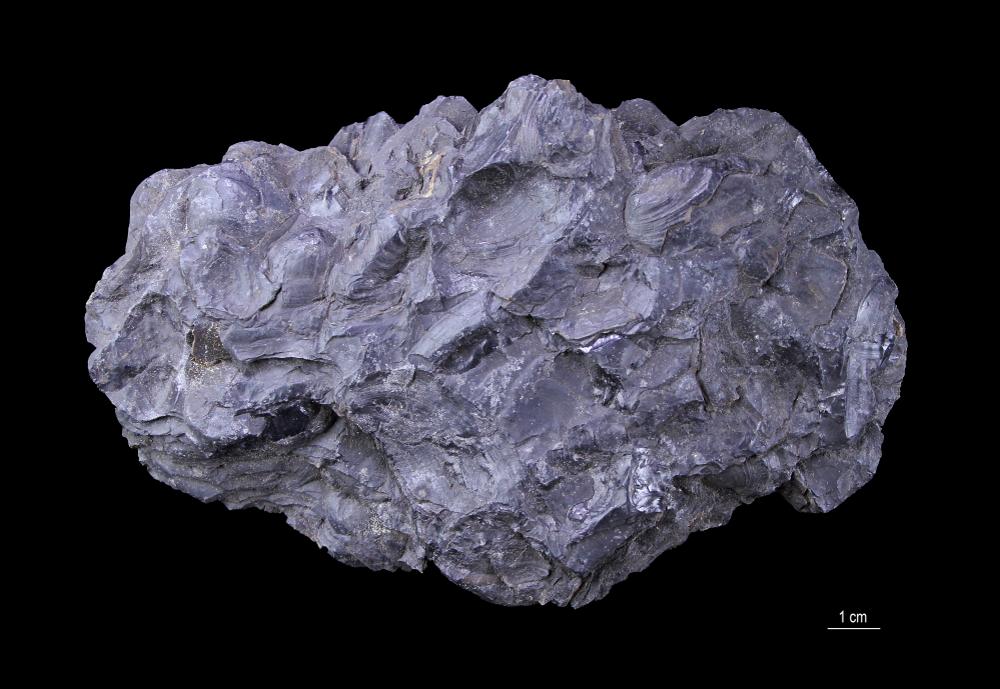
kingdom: Plantae
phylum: Tracheophyta
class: Lycopodiopsida
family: Lepidodendraceae
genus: Stigmaria
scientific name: Stigmaria ficoides
